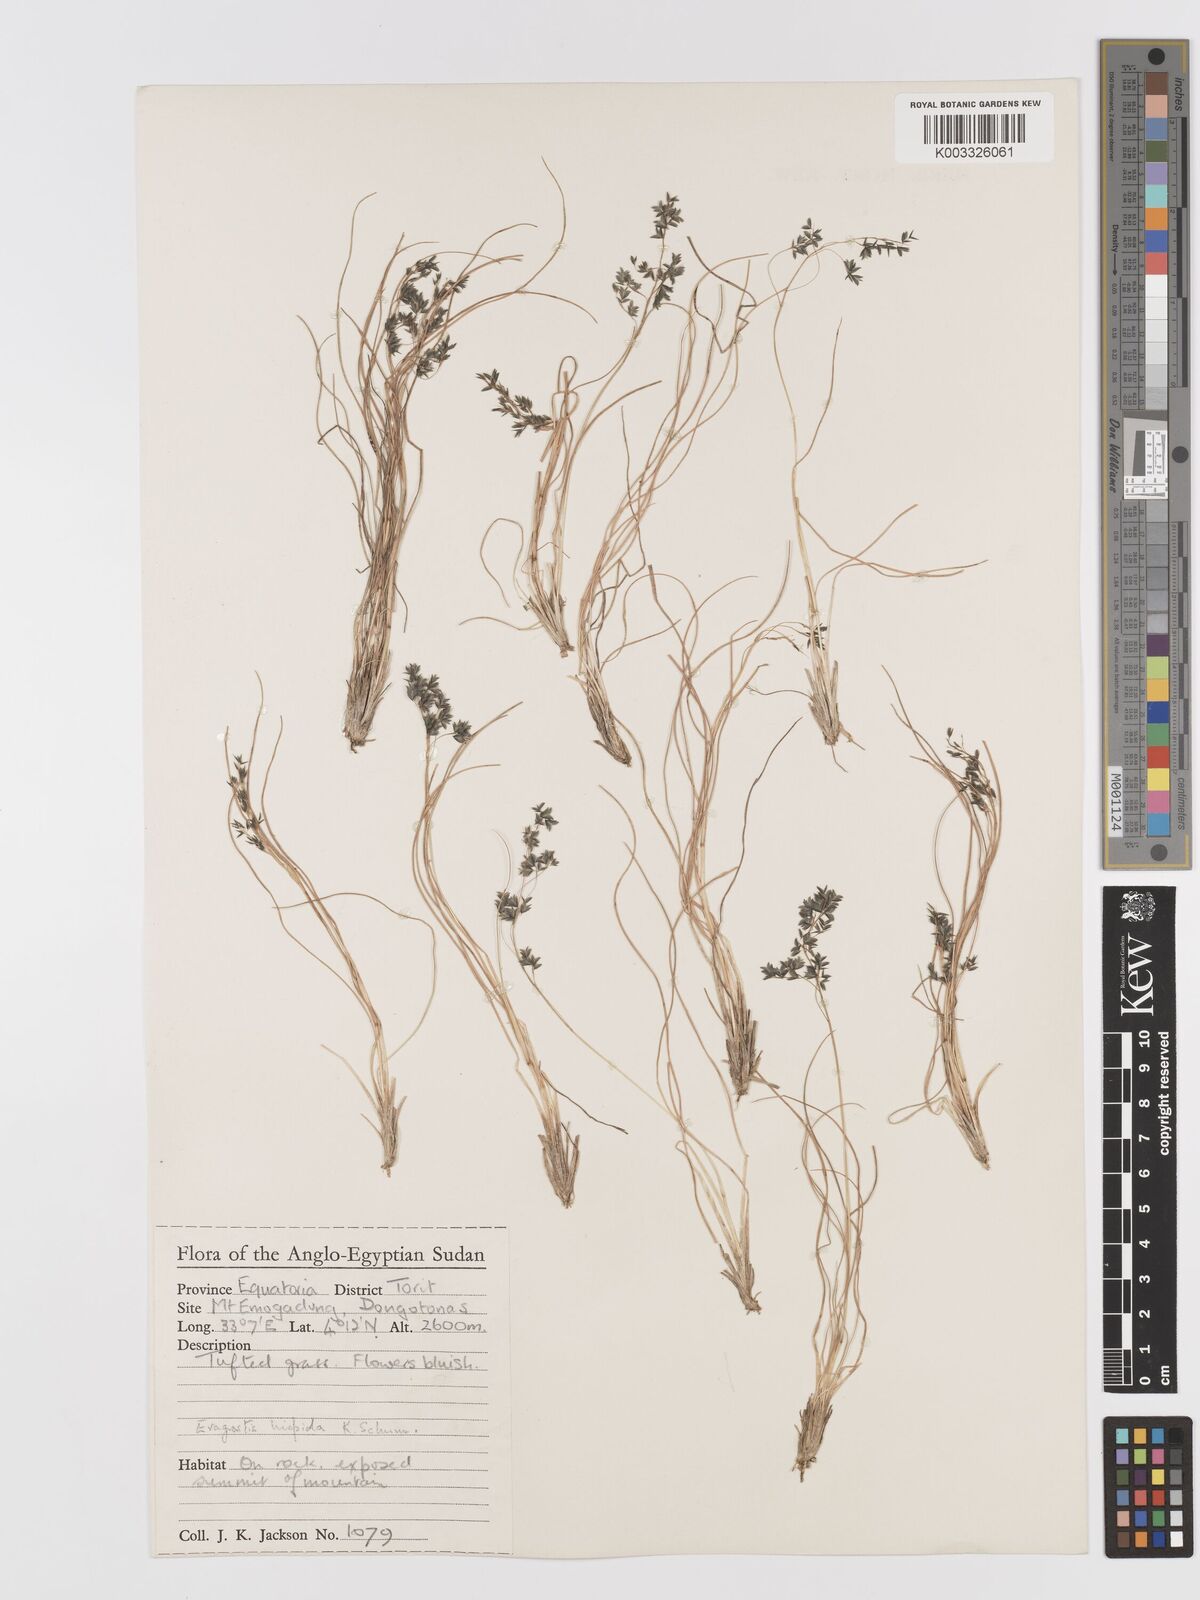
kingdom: Plantae
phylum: Tracheophyta
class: Liliopsida
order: Poales
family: Poaceae
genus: Eragrostis
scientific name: Eragrostis hispida
